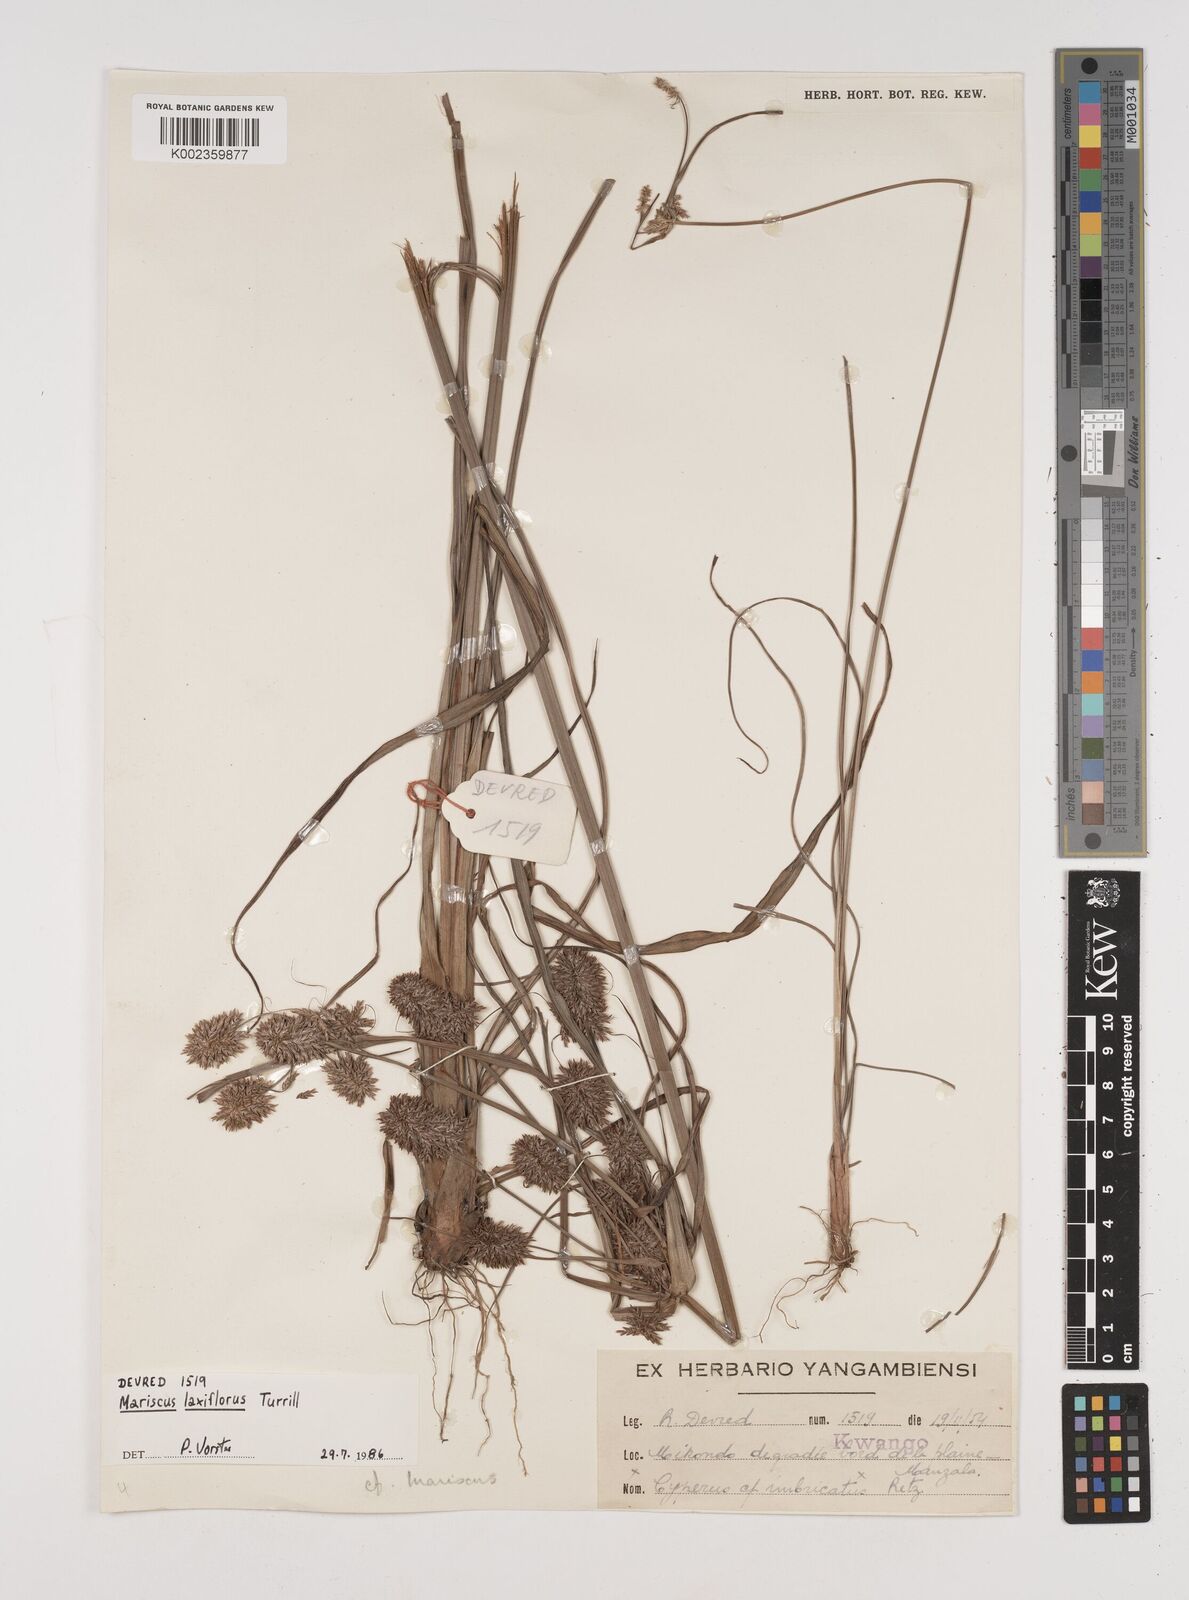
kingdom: Plantae
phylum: Tracheophyta
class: Liliopsida
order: Poales
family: Cyperaceae
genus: Cyperus
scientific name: Cyperus turrillii
